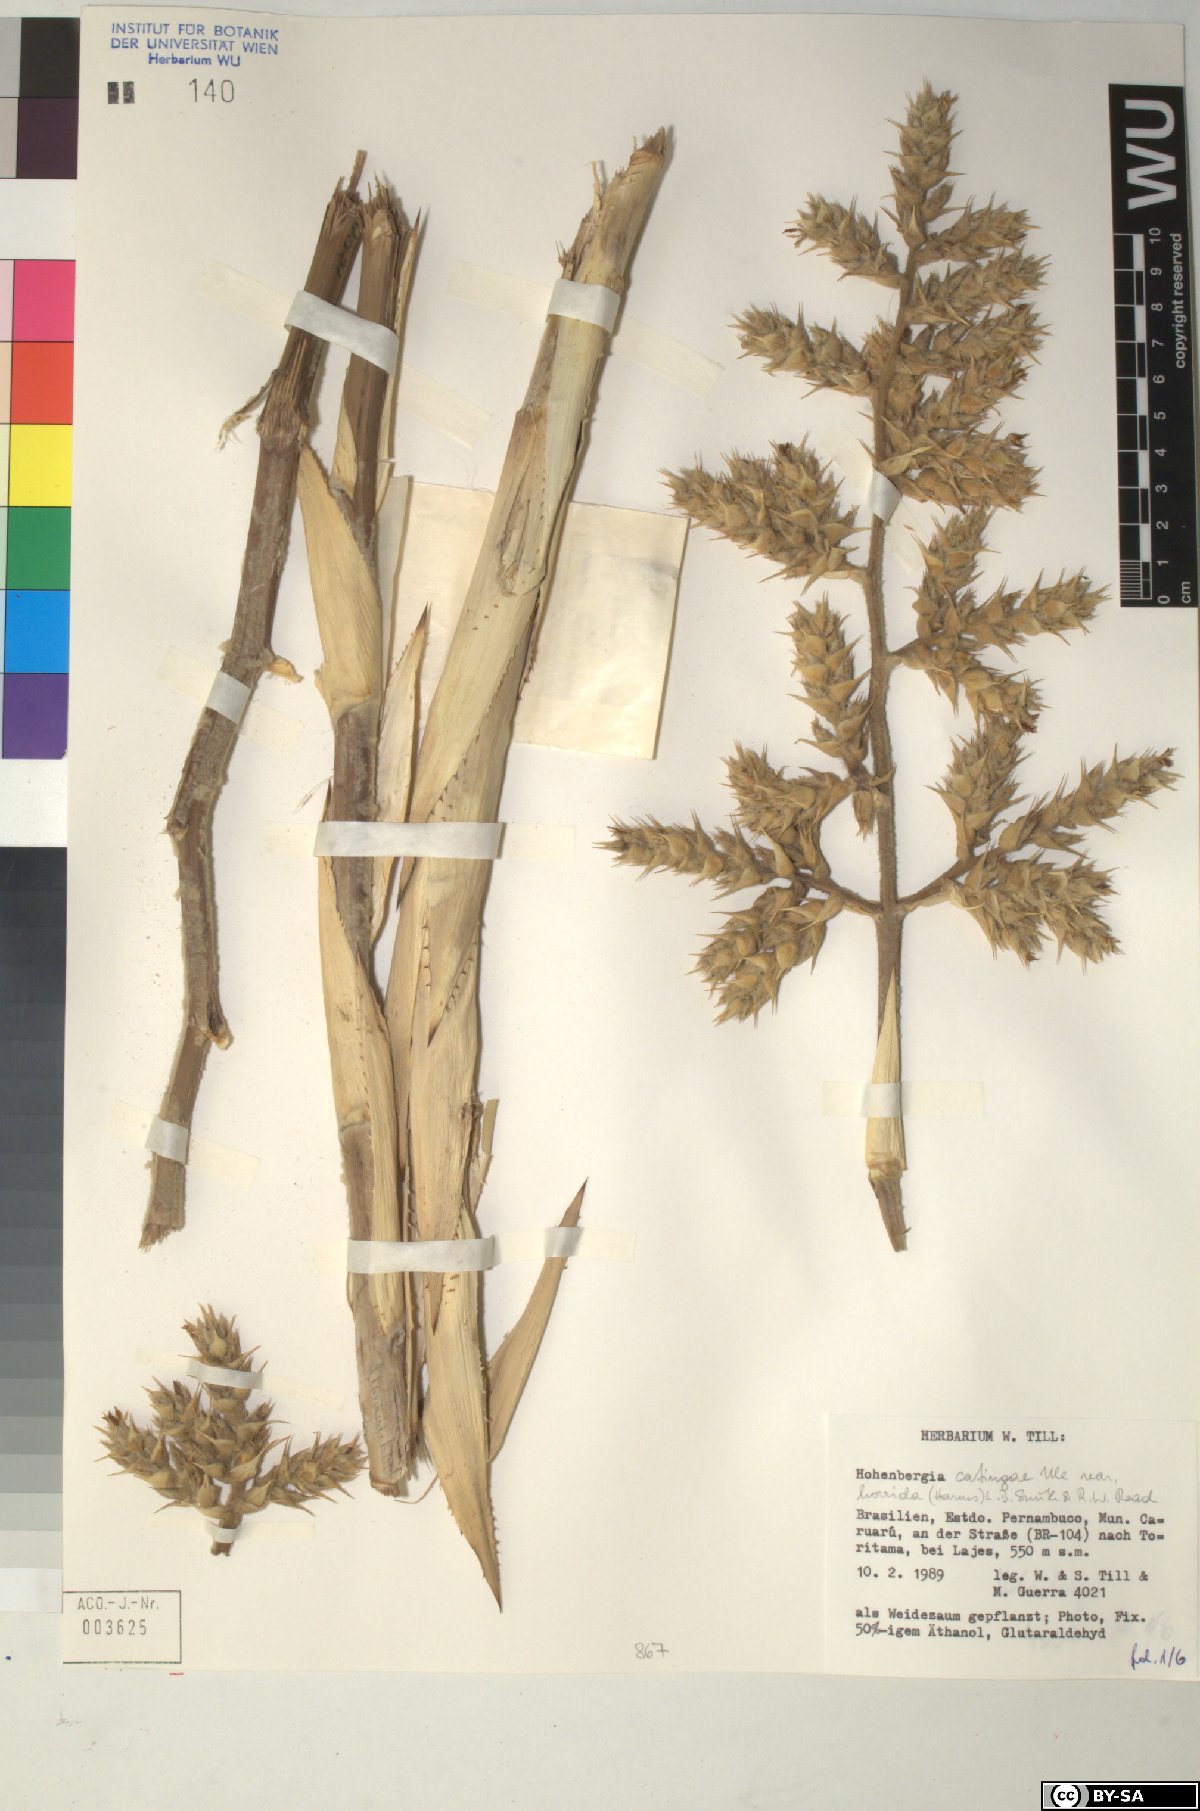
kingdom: Plantae
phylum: Tracheophyta
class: Liliopsida
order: Poales
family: Bromeliaceae
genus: Hohenbergia
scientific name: Hohenbergia
